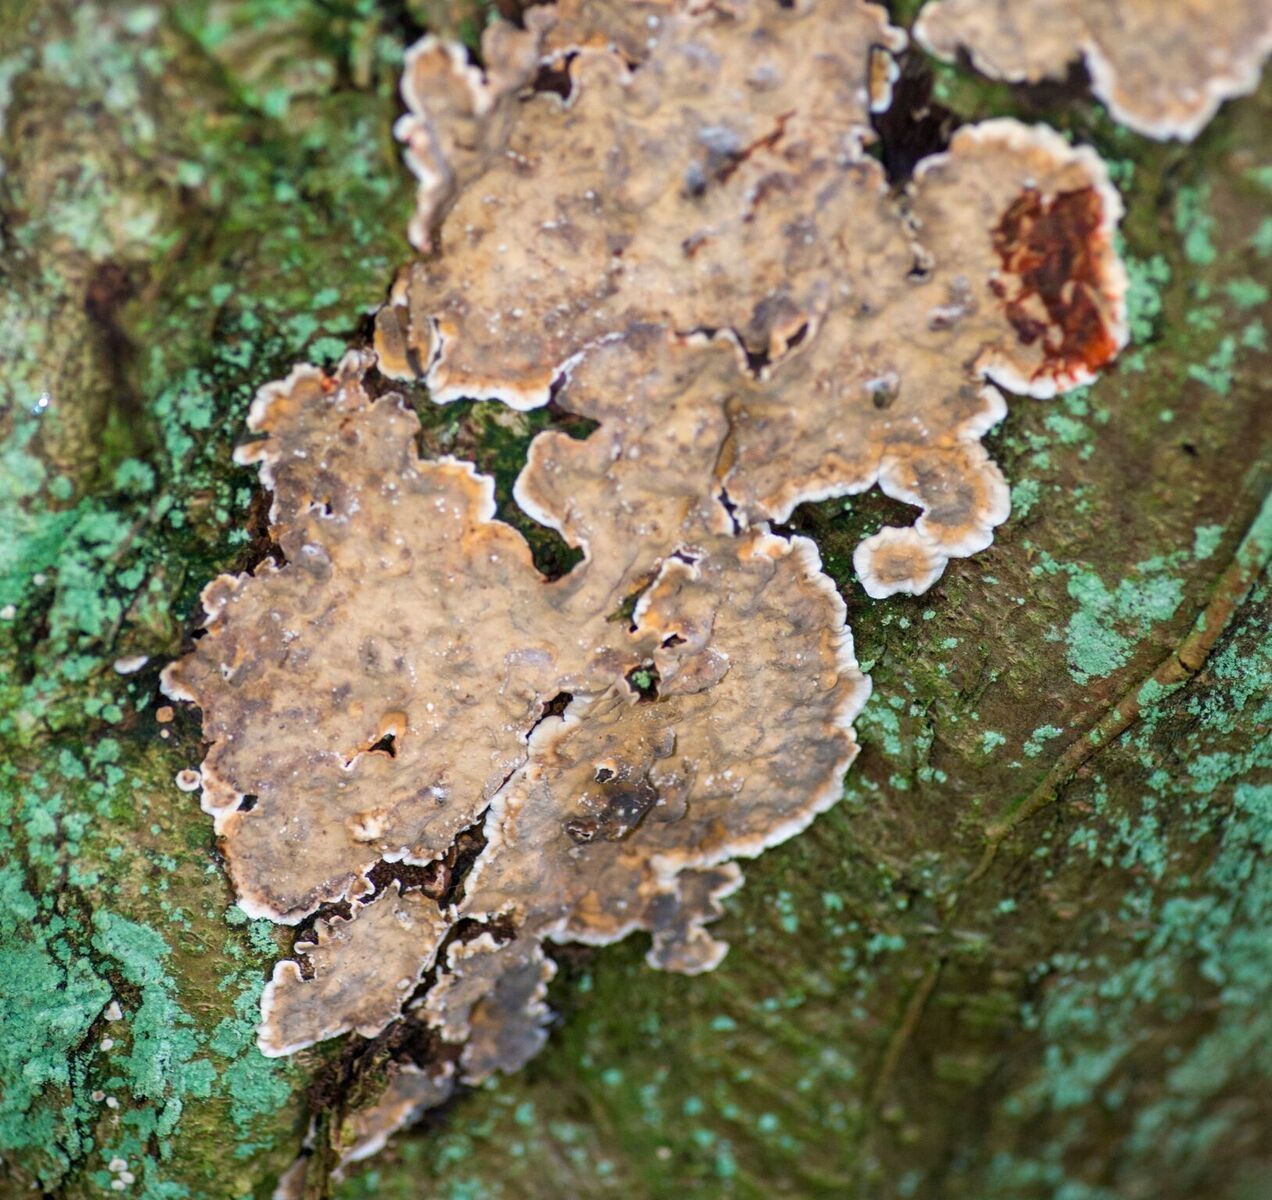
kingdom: Fungi
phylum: Basidiomycota
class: Agaricomycetes
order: Russulales
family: Stereaceae
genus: Stereum
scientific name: Stereum rugosum
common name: rynket lædersvamp
